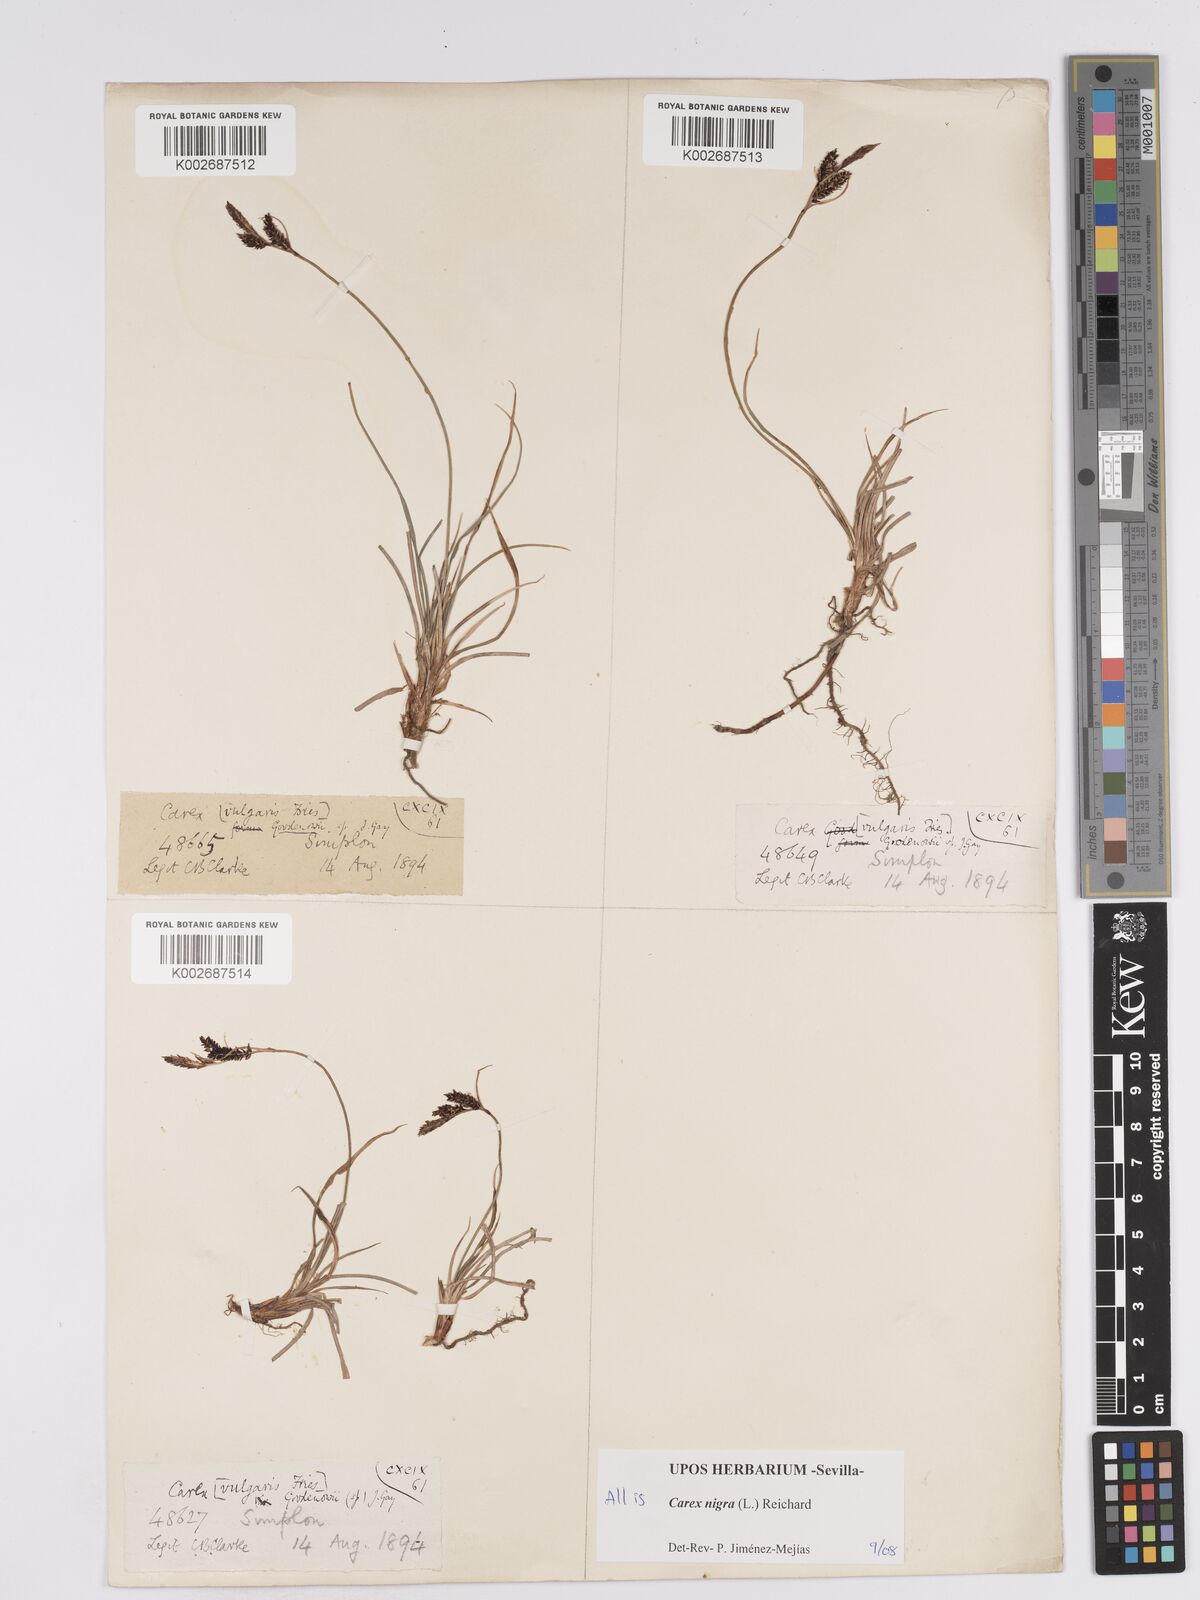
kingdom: Plantae
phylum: Tracheophyta
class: Liliopsida
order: Poales
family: Cyperaceae
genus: Carex
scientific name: Carex nigra
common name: Common sedge
